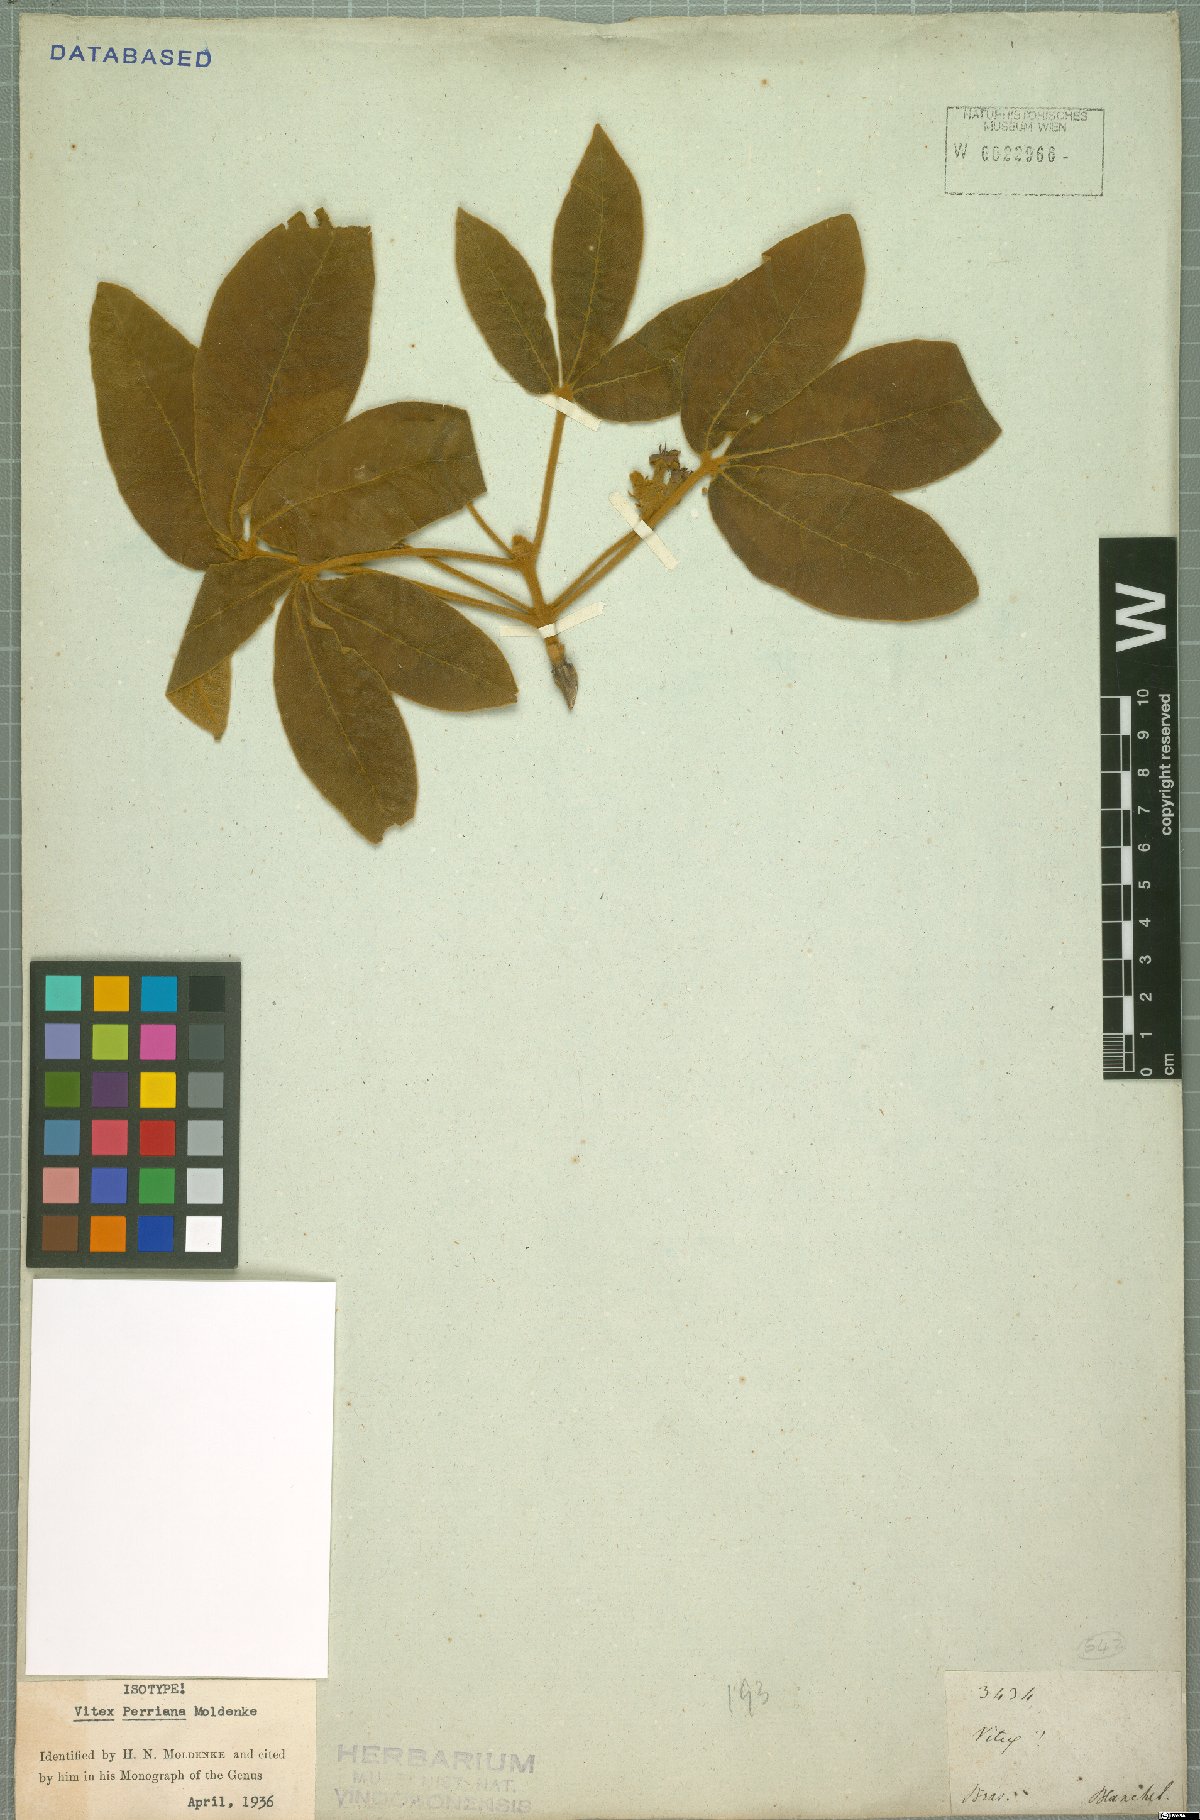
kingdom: Plantae
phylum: Tracheophyta
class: Magnoliopsida
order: Lamiales
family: Lamiaceae
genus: Vitex
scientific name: Vitex rufescens
